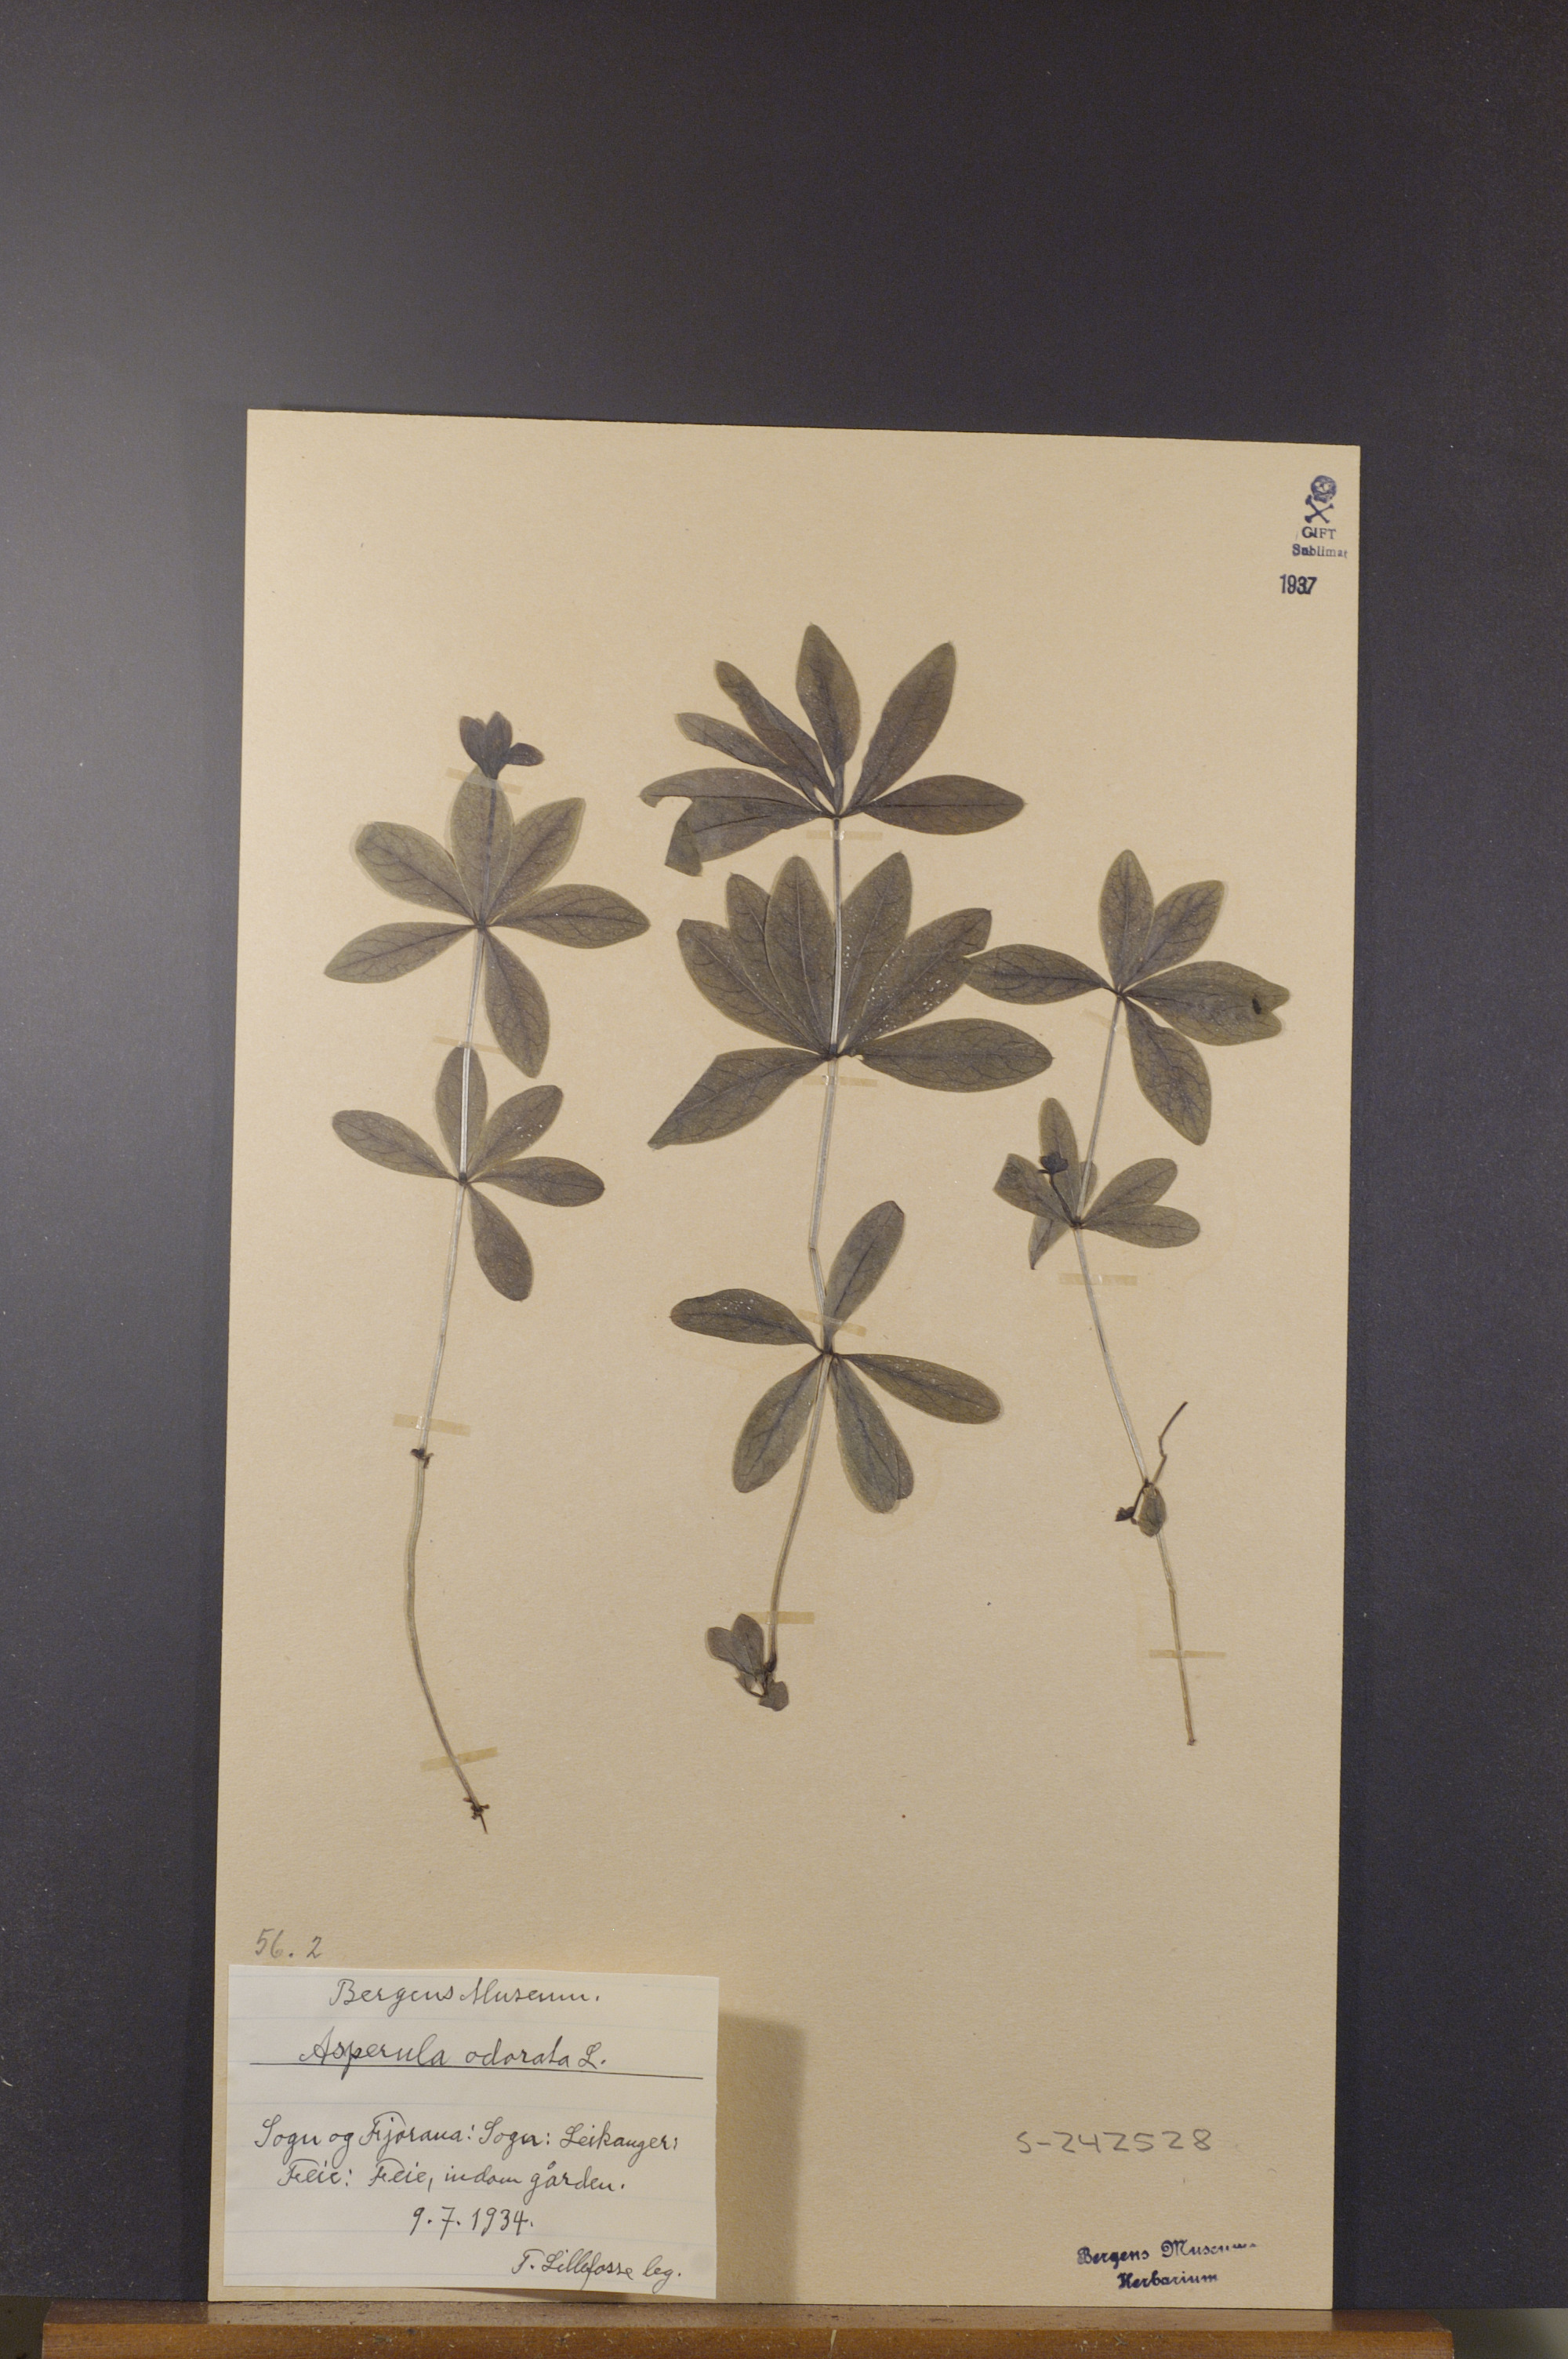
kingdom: Plantae
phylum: Tracheophyta
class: Magnoliopsida
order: Gentianales
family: Rubiaceae
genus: Galium
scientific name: Galium odoratum
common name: Sweet woodruff
